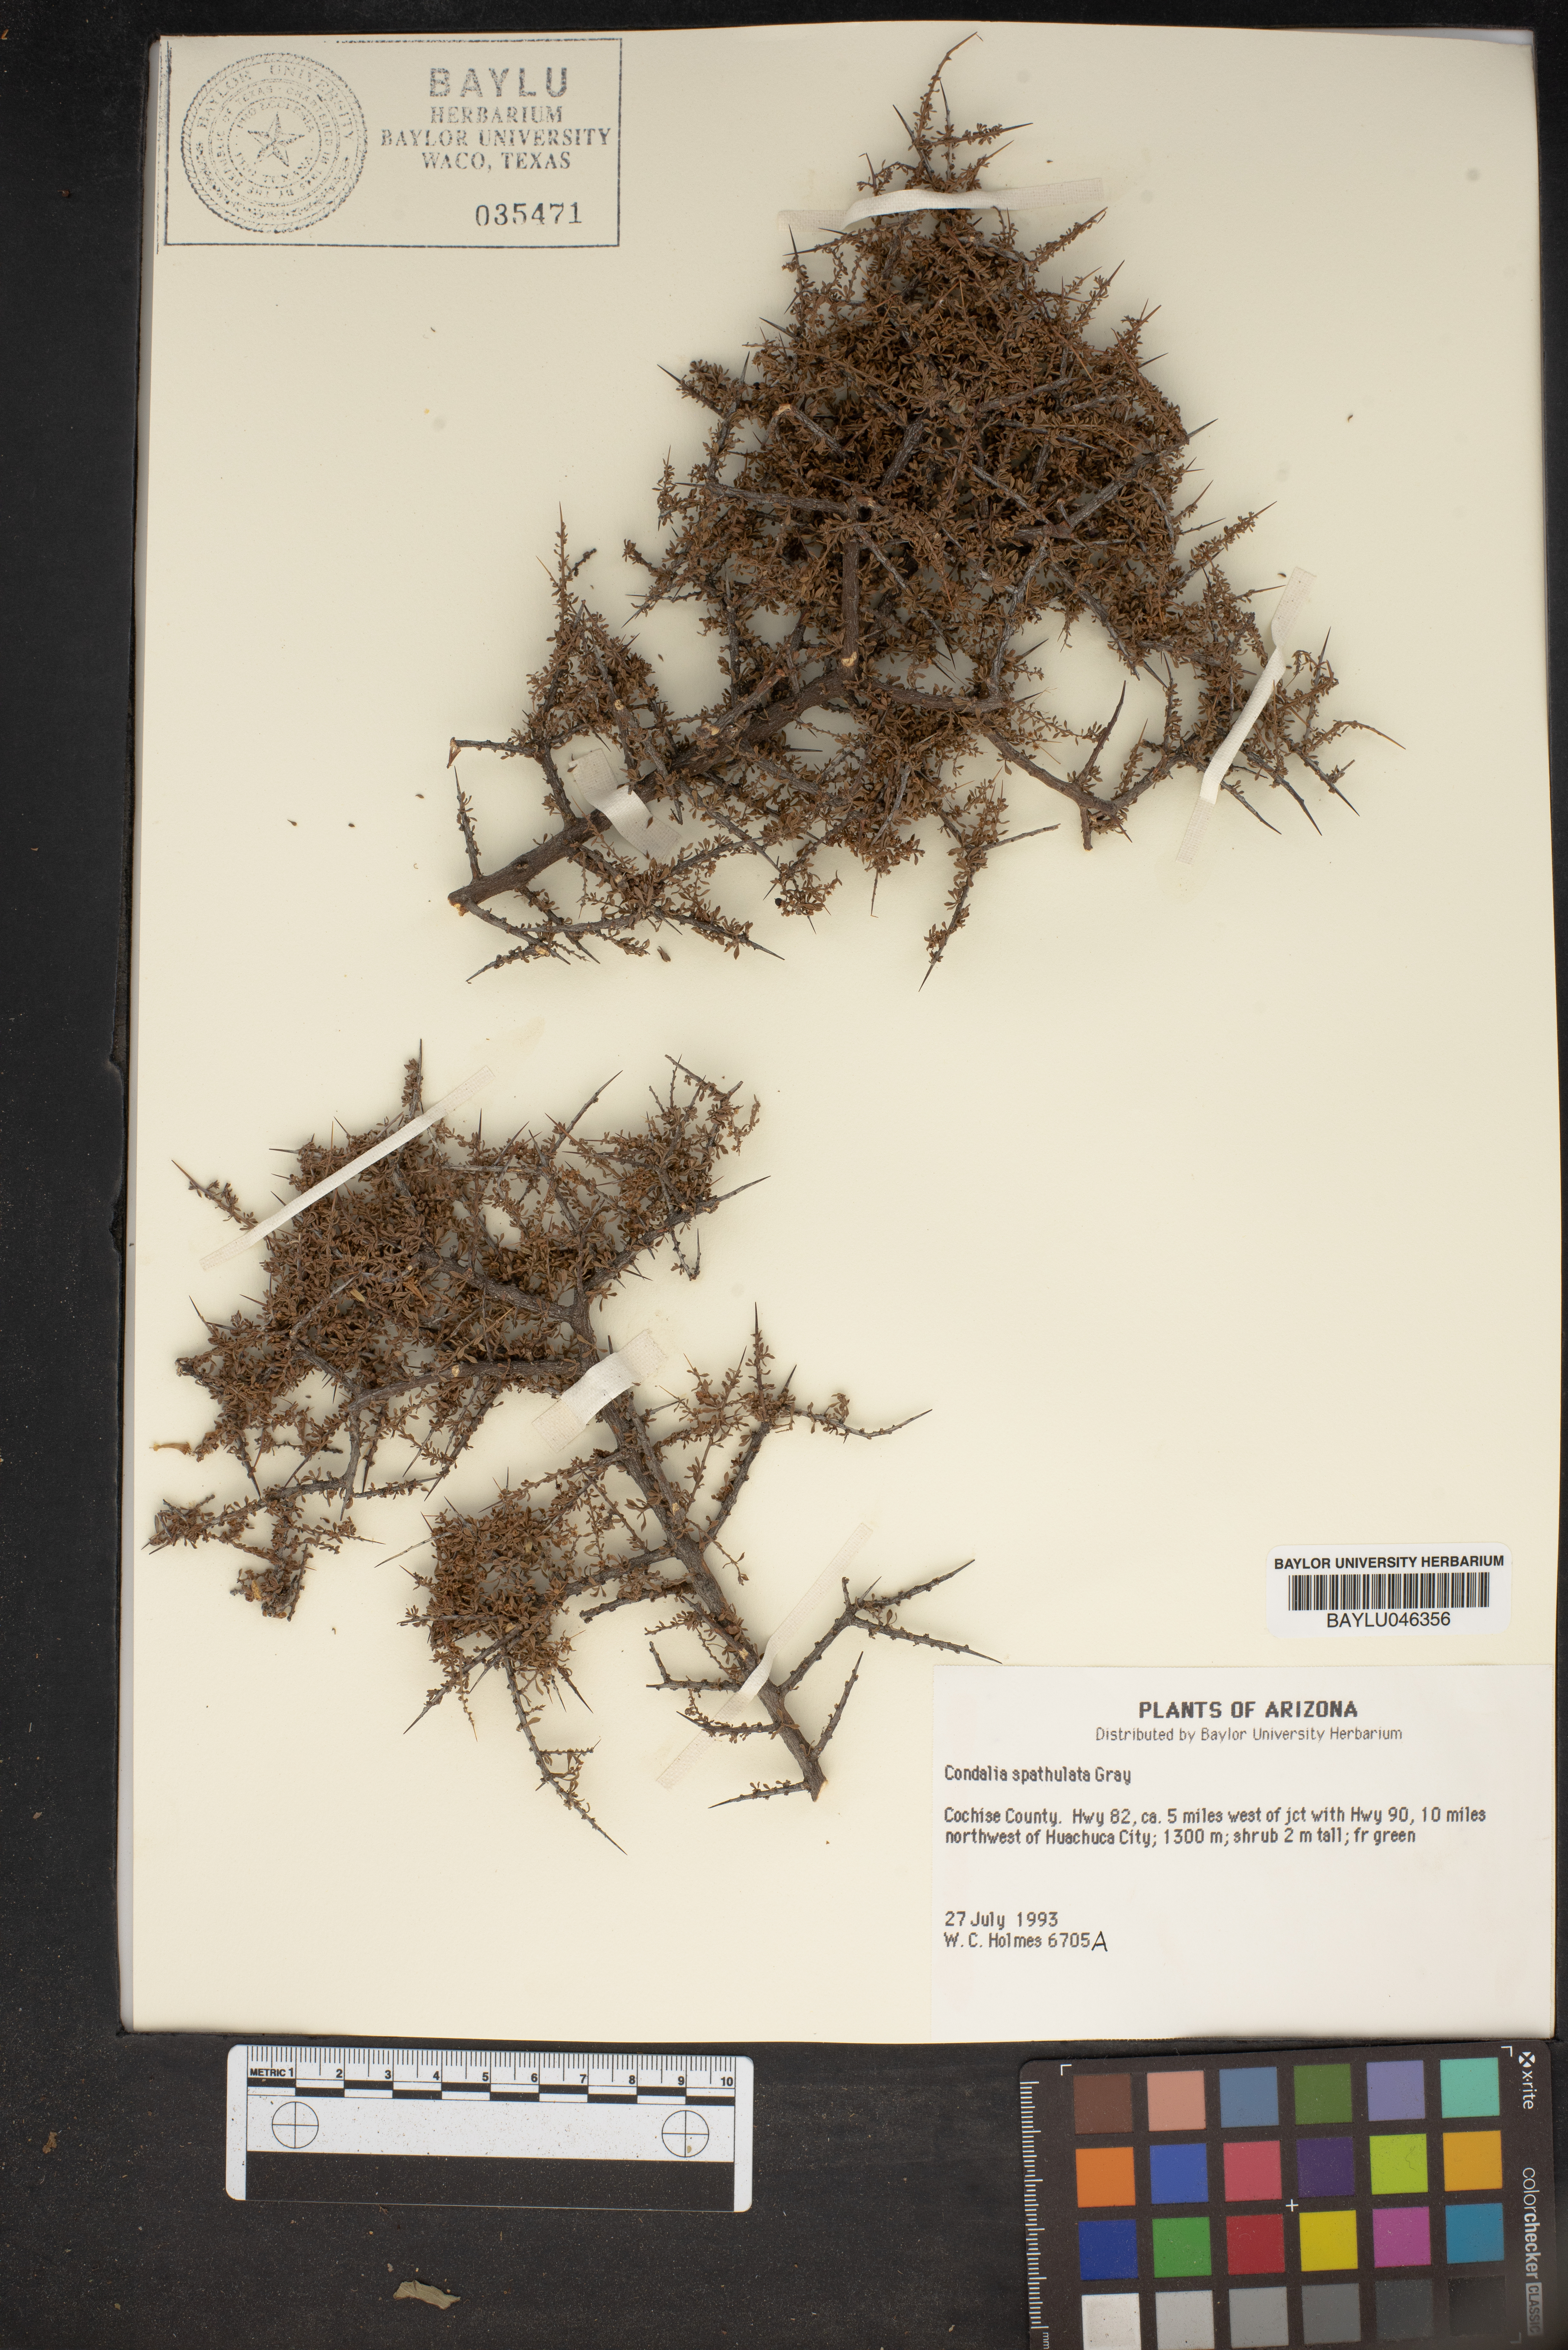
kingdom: Plantae
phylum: Tracheophyta
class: Magnoliopsida
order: Rosales
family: Rhamnaceae
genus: Condalia
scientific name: Condalia spathulata
